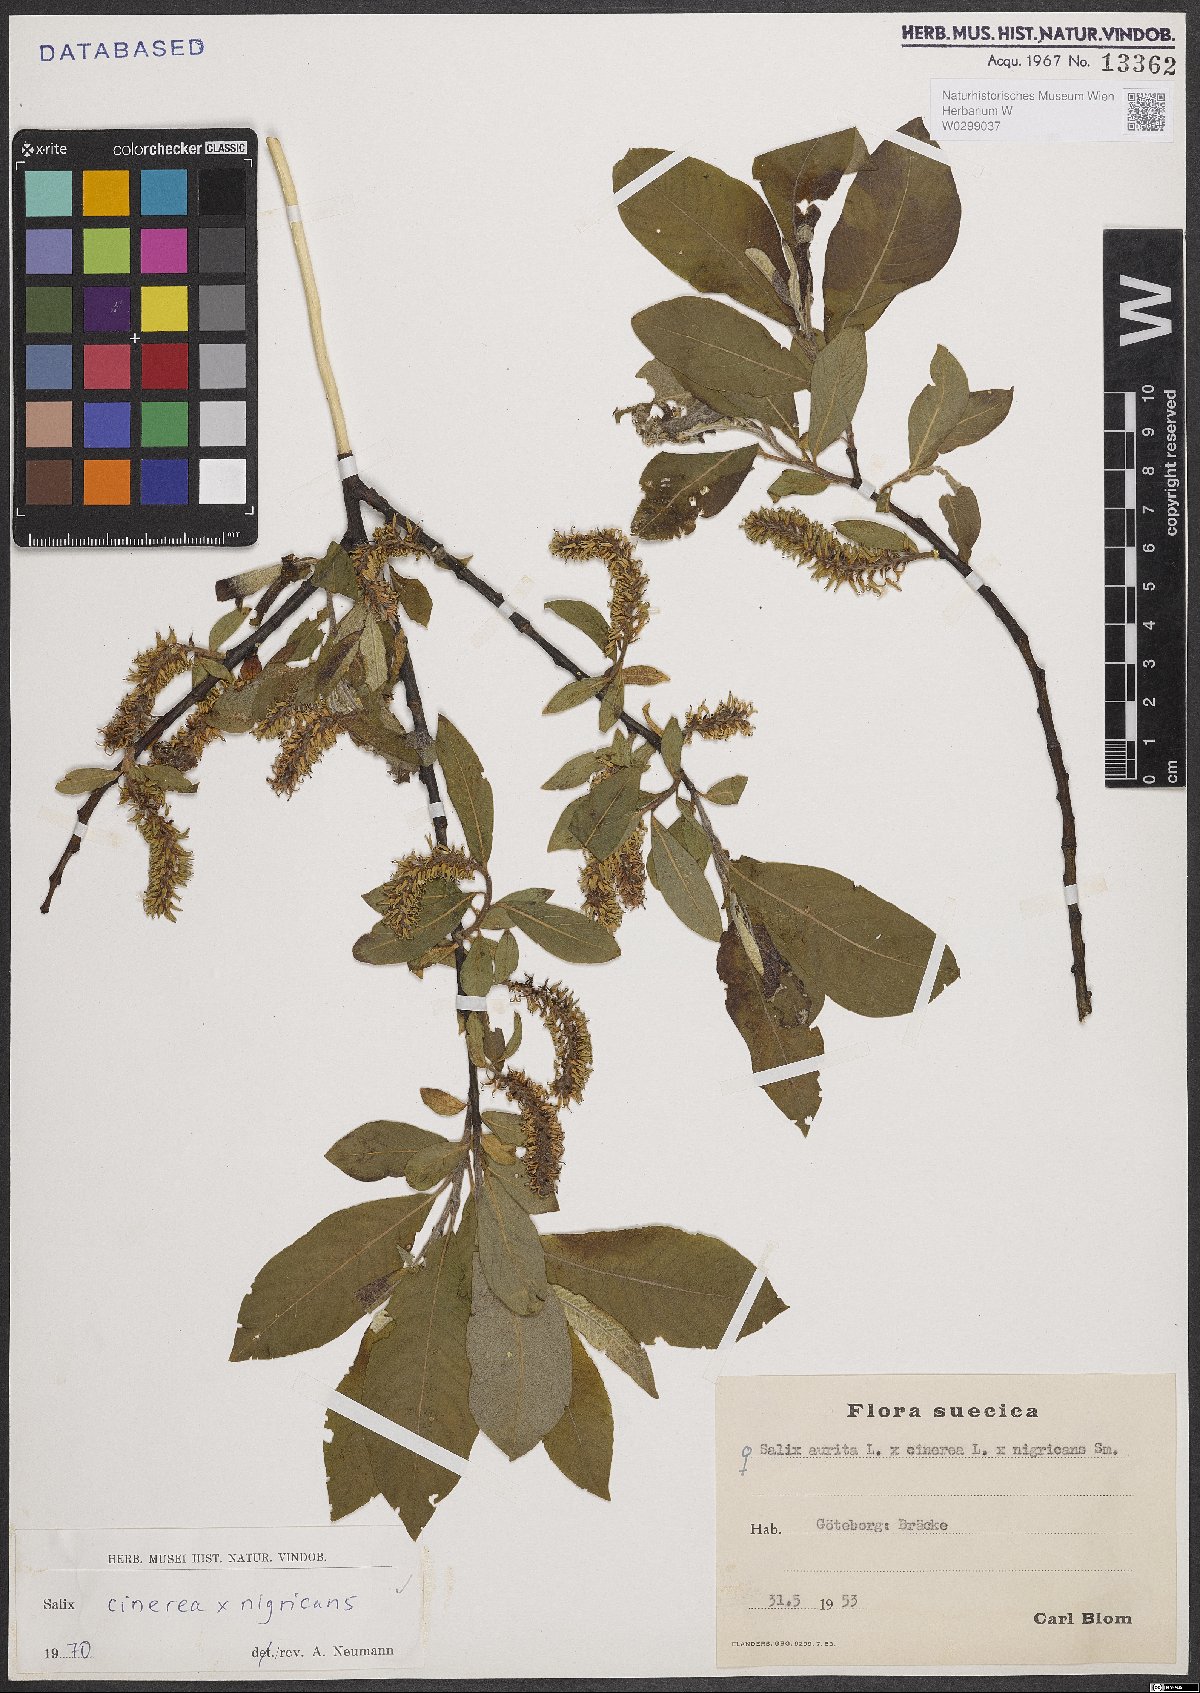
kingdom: Plantae
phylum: Tracheophyta
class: Magnoliopsida
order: Malpighiales
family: Salicaceae
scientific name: Salicaceae
